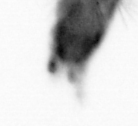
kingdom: Animalia
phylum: Arthropoda
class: Copepoda
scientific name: Copepoda
